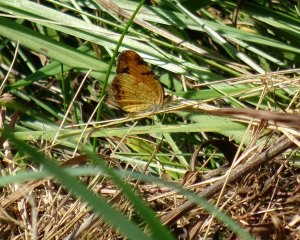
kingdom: Animalia
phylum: Arthropoda
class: Insecta
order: Lepidoptera
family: Nymphalidae
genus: Phyciodes
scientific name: Phyciodes tharos
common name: Pearl Crescent
